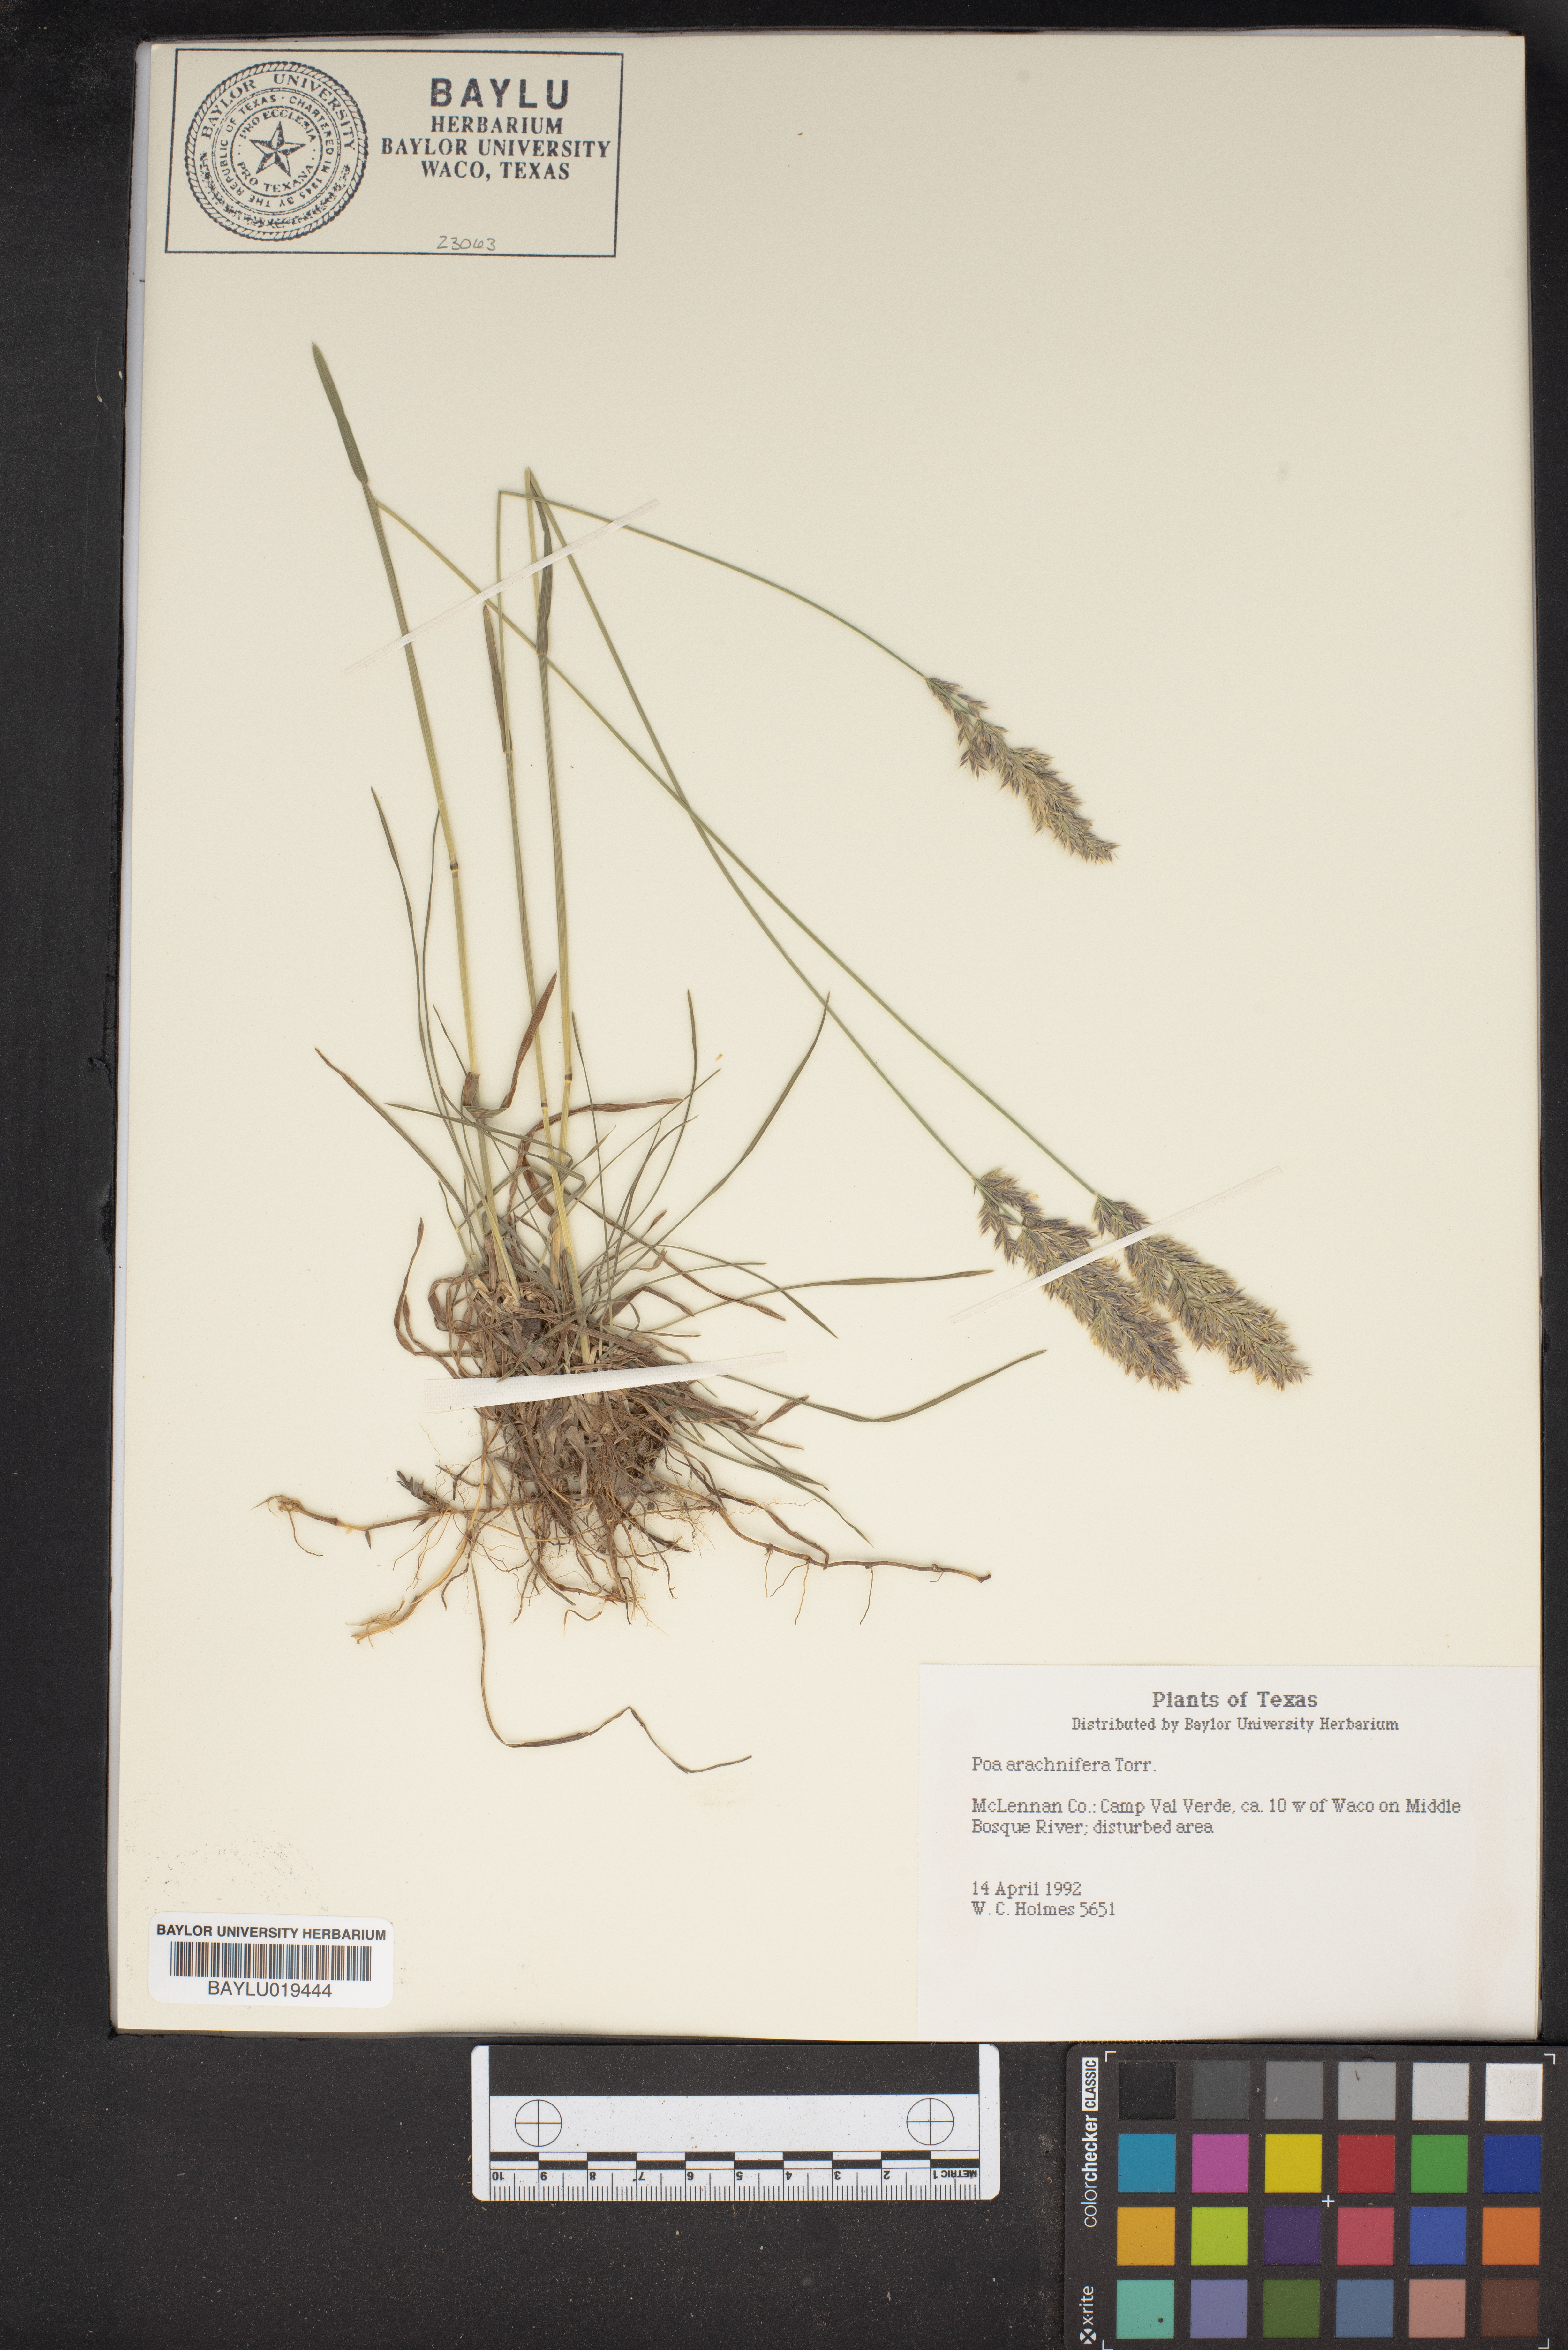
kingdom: Plantae
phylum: Tracheophyta
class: Liliopsida
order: Poales
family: Poaceae
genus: Poa
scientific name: Poa arachnifera
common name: Texas bluegrass
